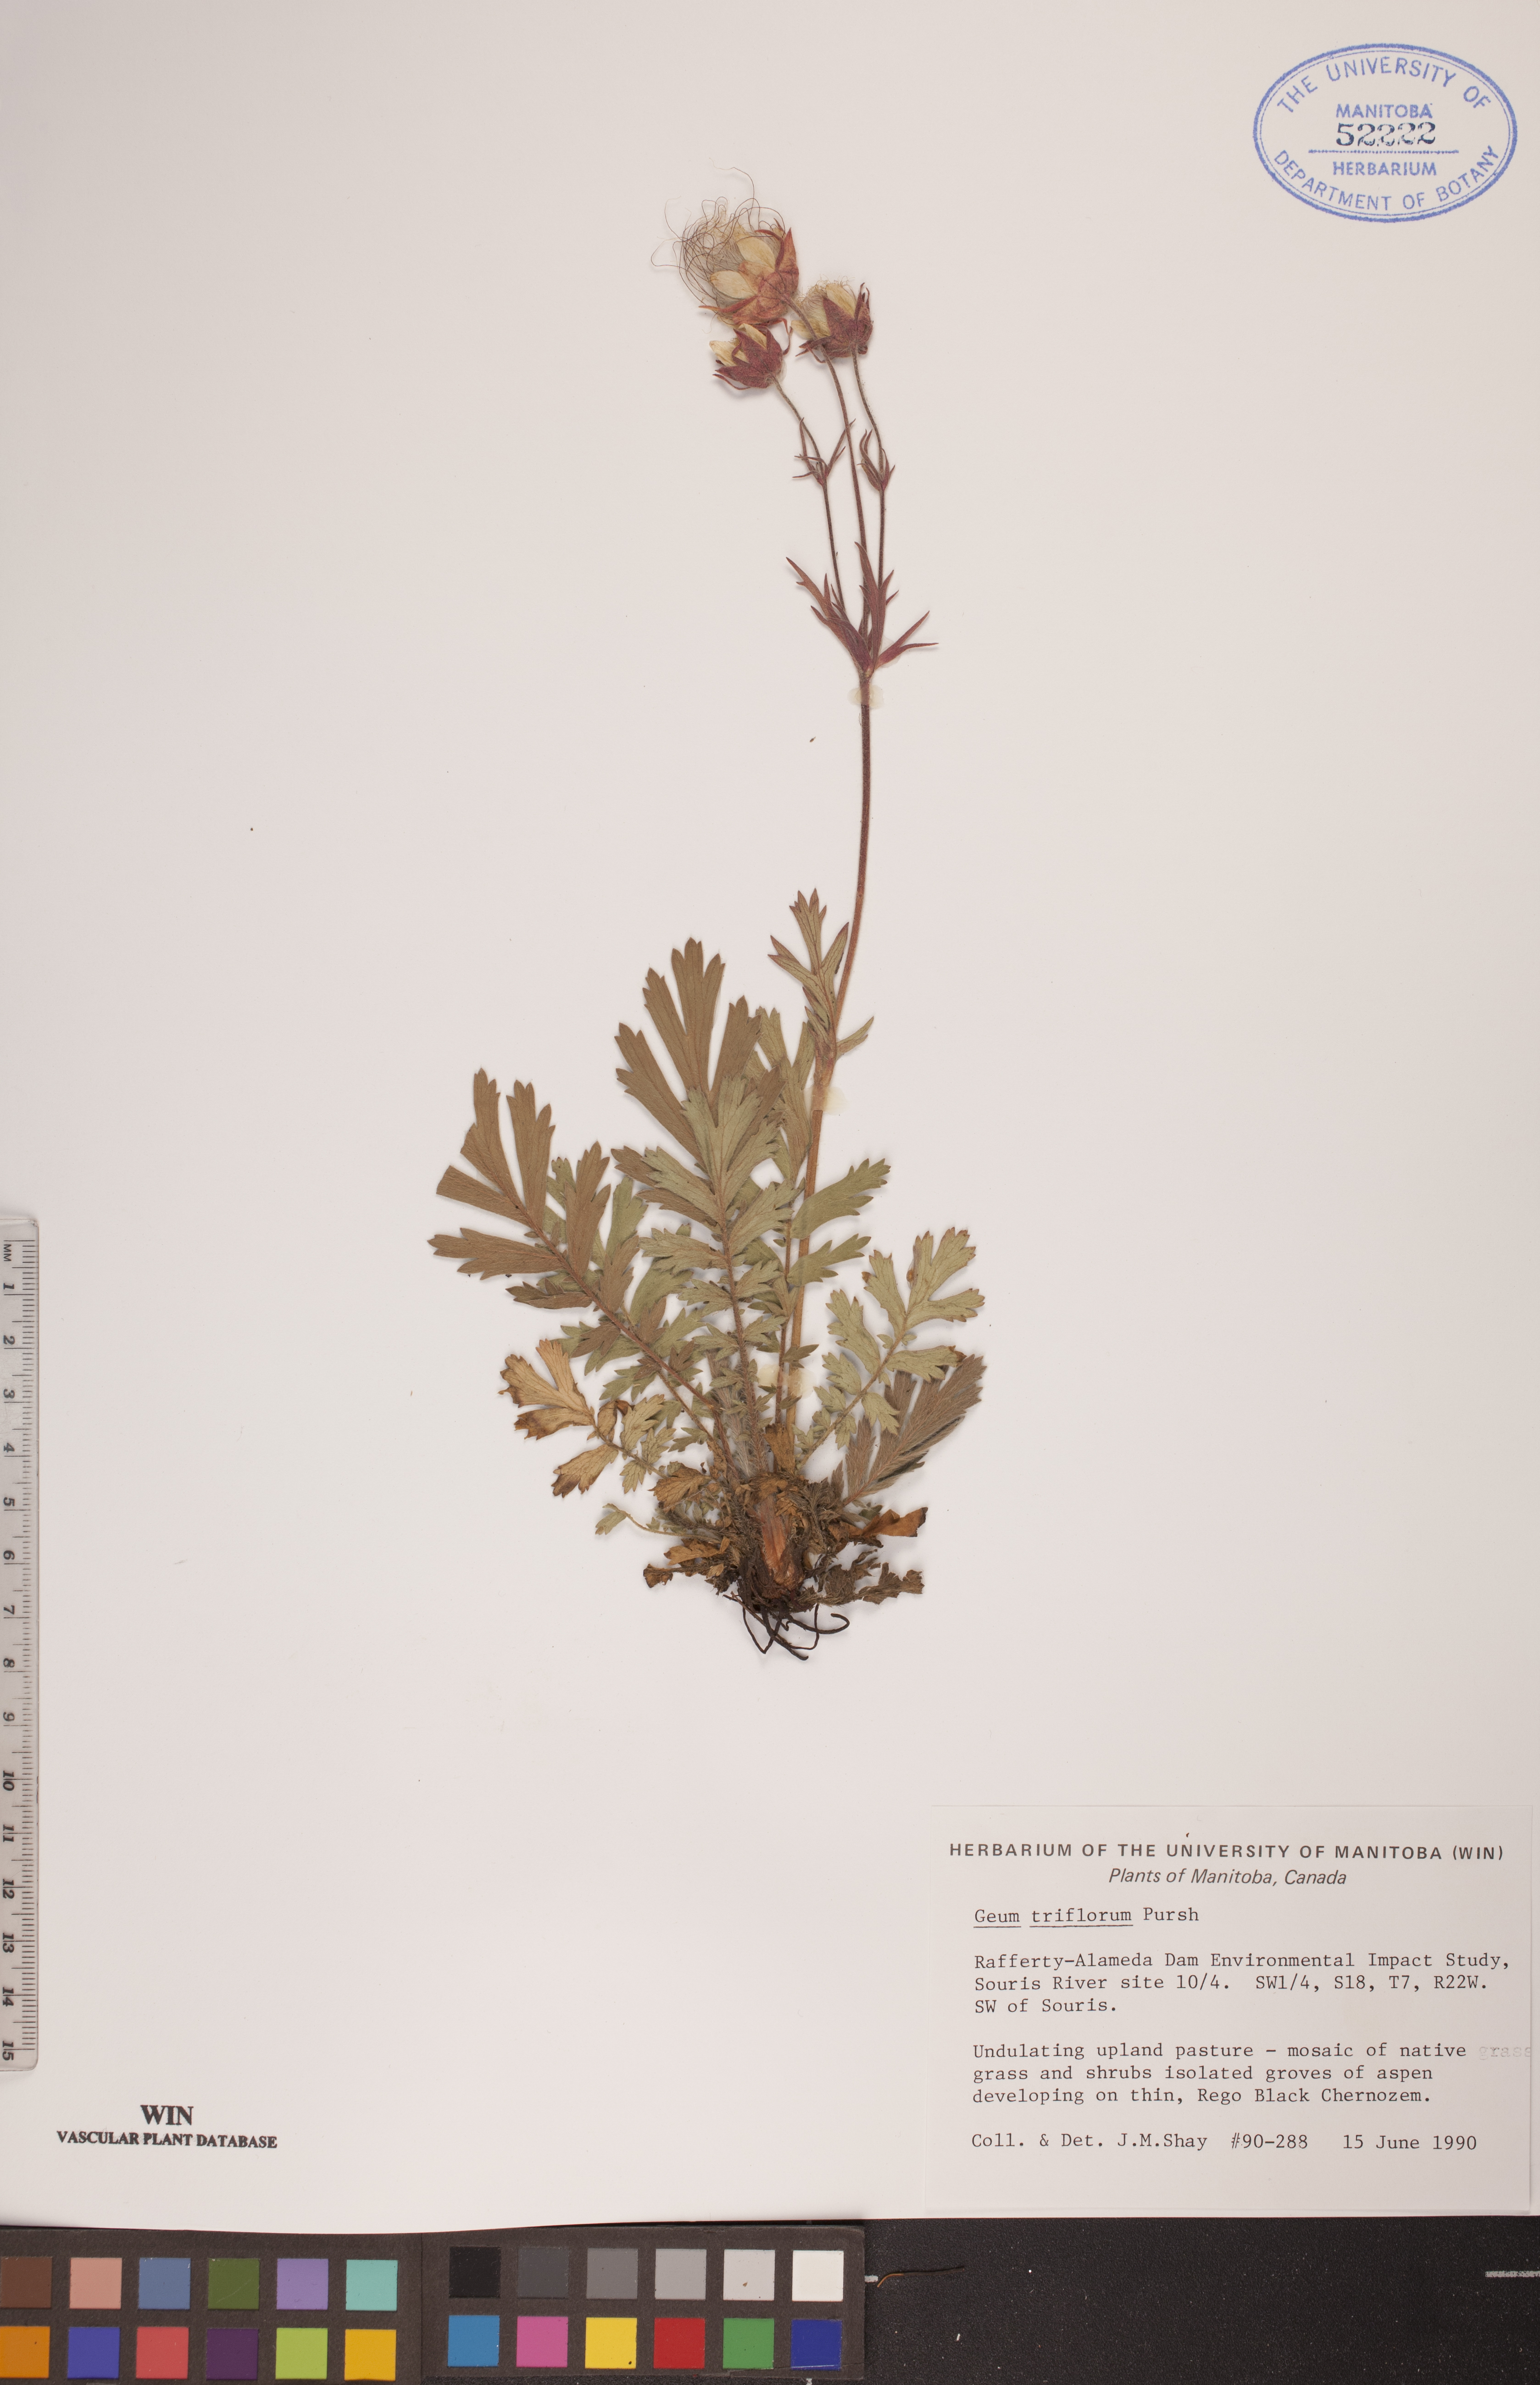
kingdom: Plantae
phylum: Tracheophyta
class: Magnoliopsida
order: Rosales
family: Rosaceae
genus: Geum
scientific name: Geum triflorum
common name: Old man's whiskers
